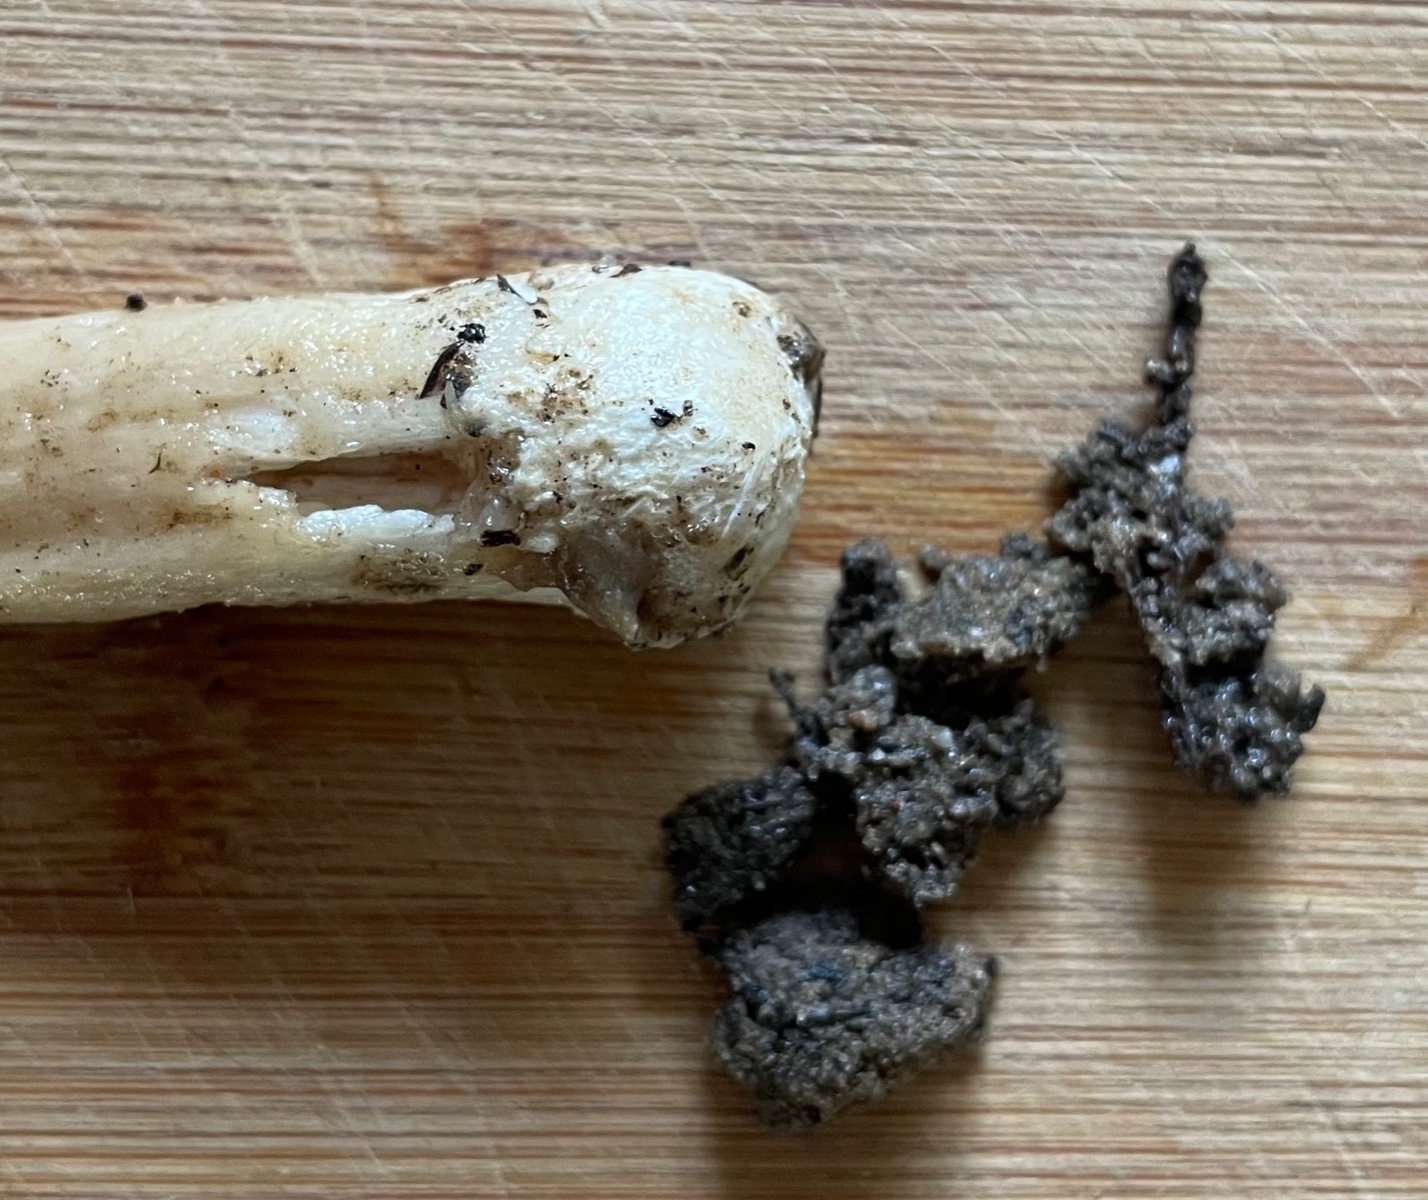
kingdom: Fungi
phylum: Basidiomycota
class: Agaricomycetes
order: Agaricales
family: Pluteaceae
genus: Volvariella
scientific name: Volvariella
